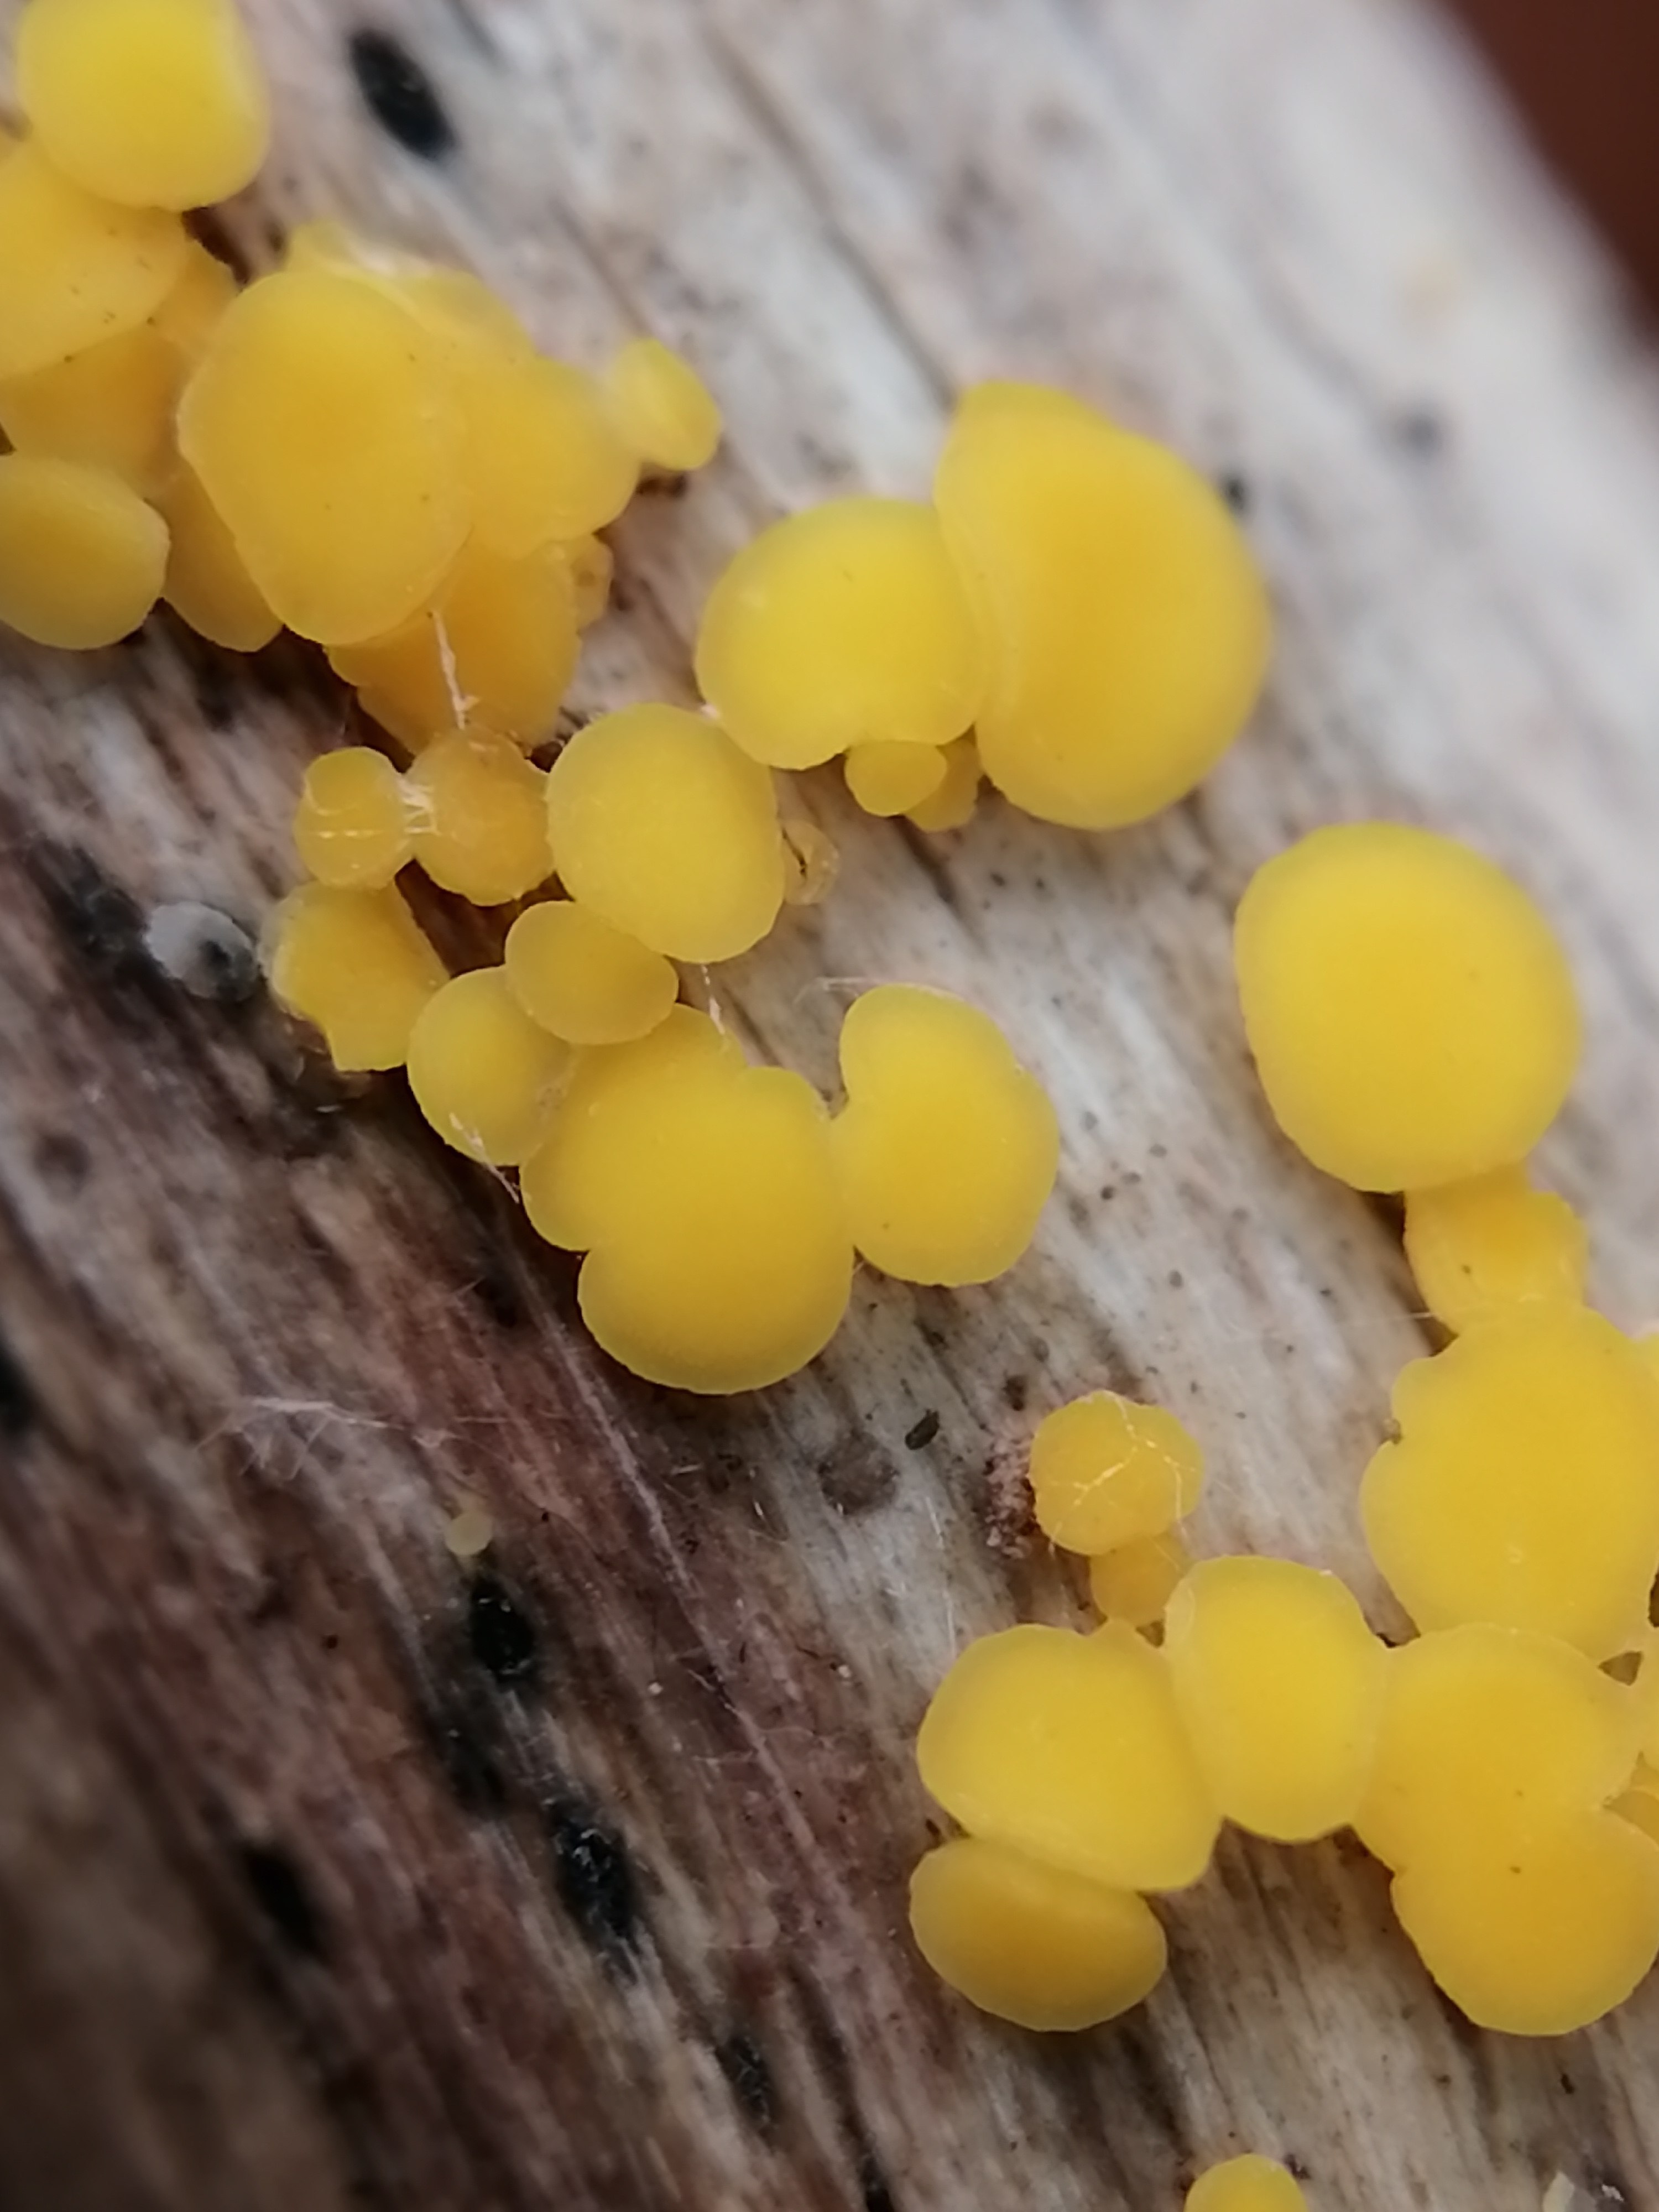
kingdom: Fungi
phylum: Ascomycota
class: Leotiomycetes
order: Helotiales
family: Pezizellaceae
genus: Calycina
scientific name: Calycina citrina
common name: almindelig gulskive
